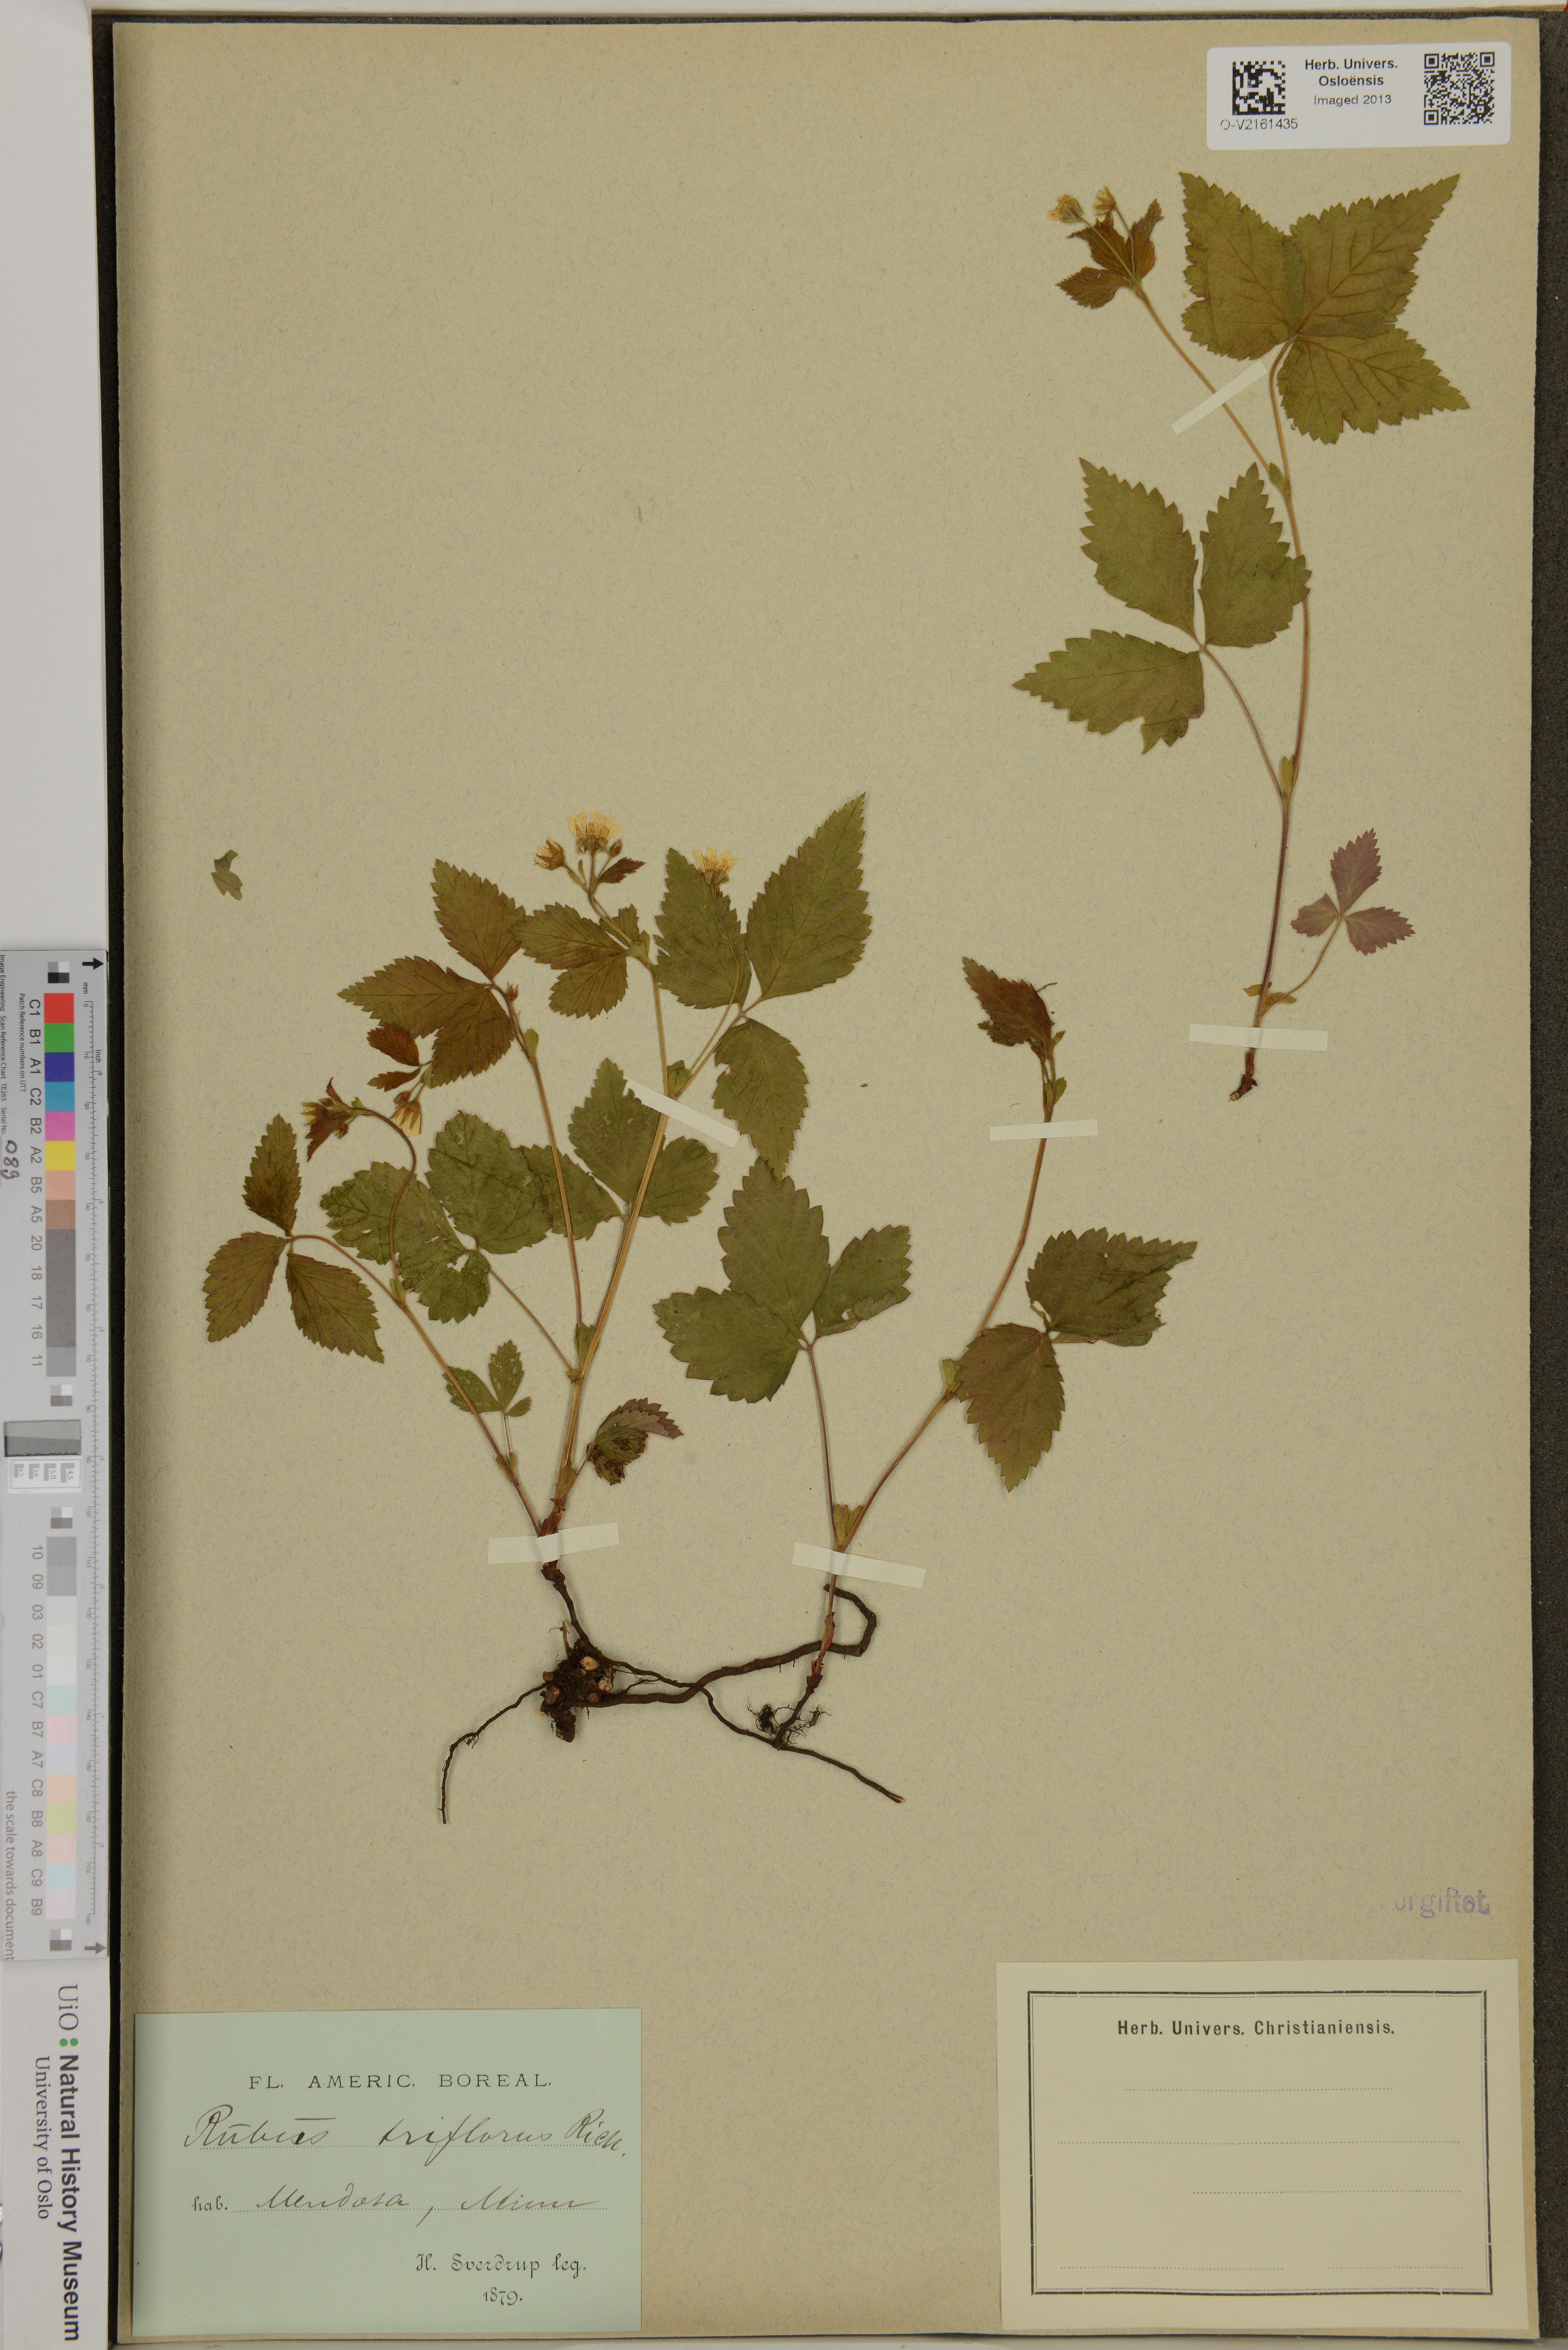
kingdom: Plantae
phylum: Tracheophyta
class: Magnoliopsida
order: Rosales
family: Rosaceae
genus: Rubus
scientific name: Rubus
